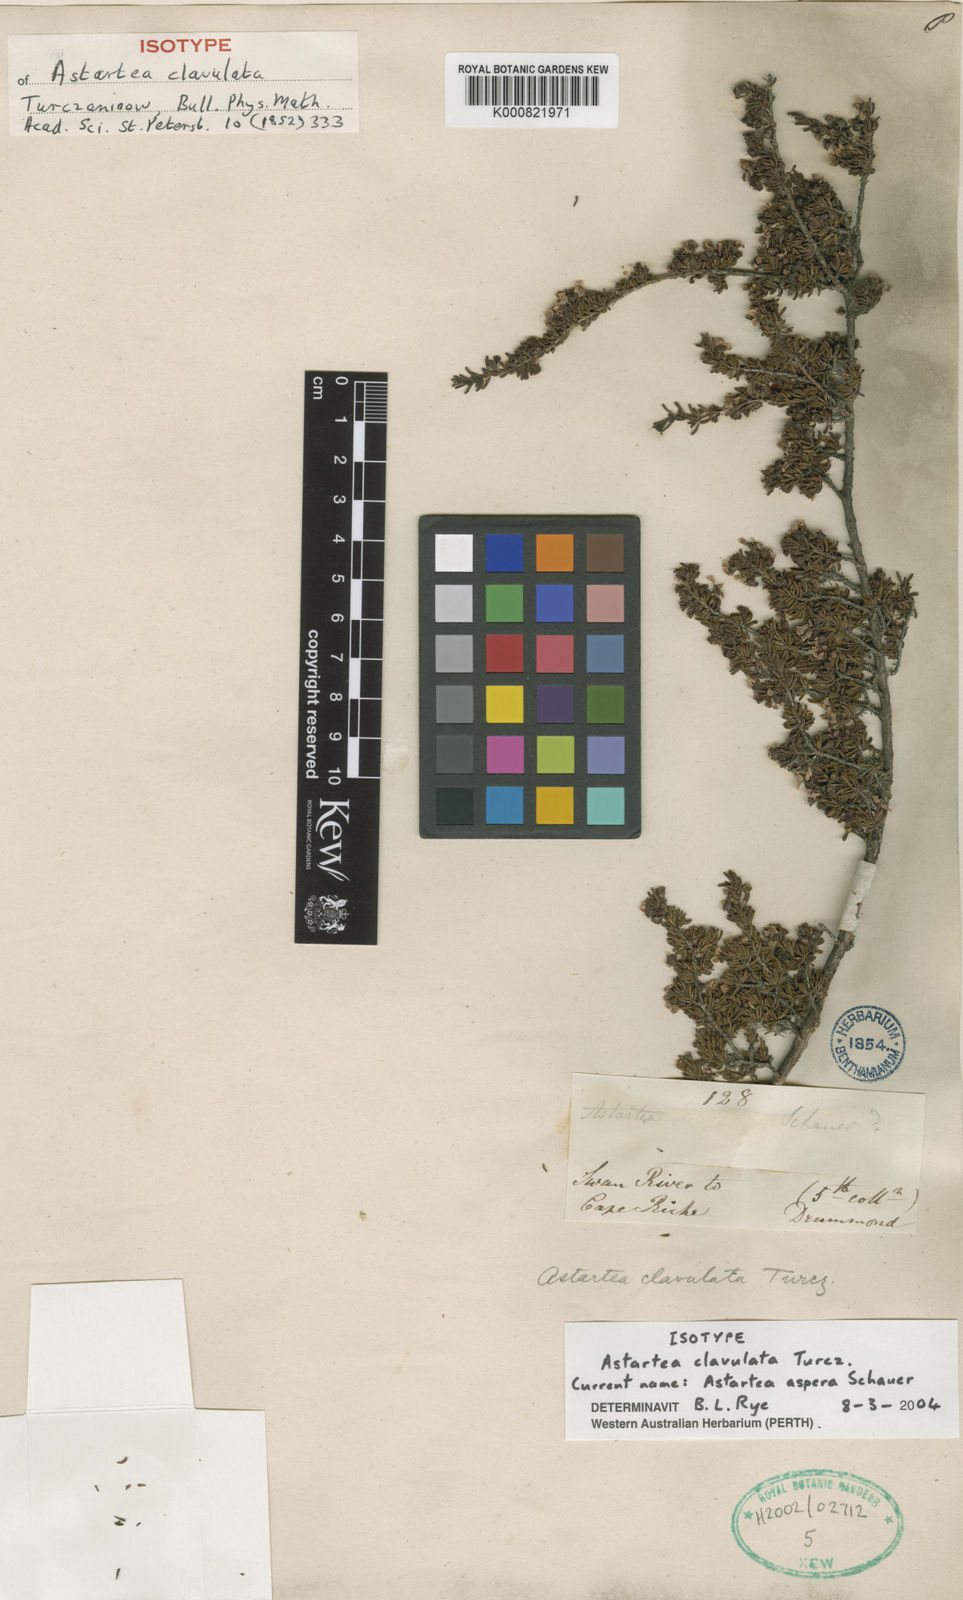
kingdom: Plantae
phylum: Tracheophyta
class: Magnoliopsida
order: Myrtales
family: Myrtaceae
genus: Astartea
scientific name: Astartea aspera
